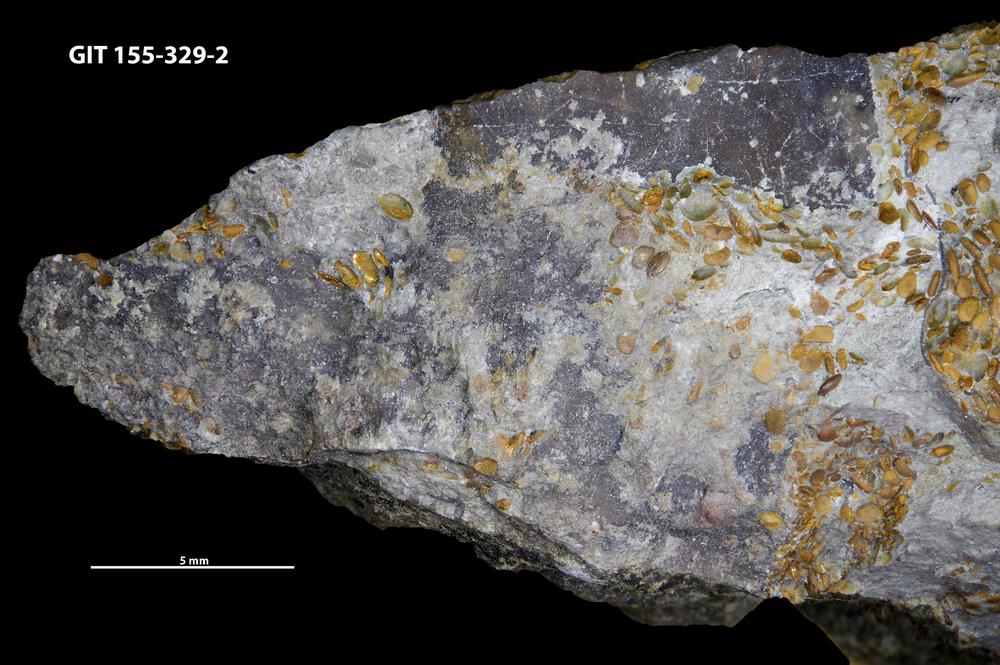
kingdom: Animalia
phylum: Arthropoda
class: Trilobita
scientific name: Trilobita
